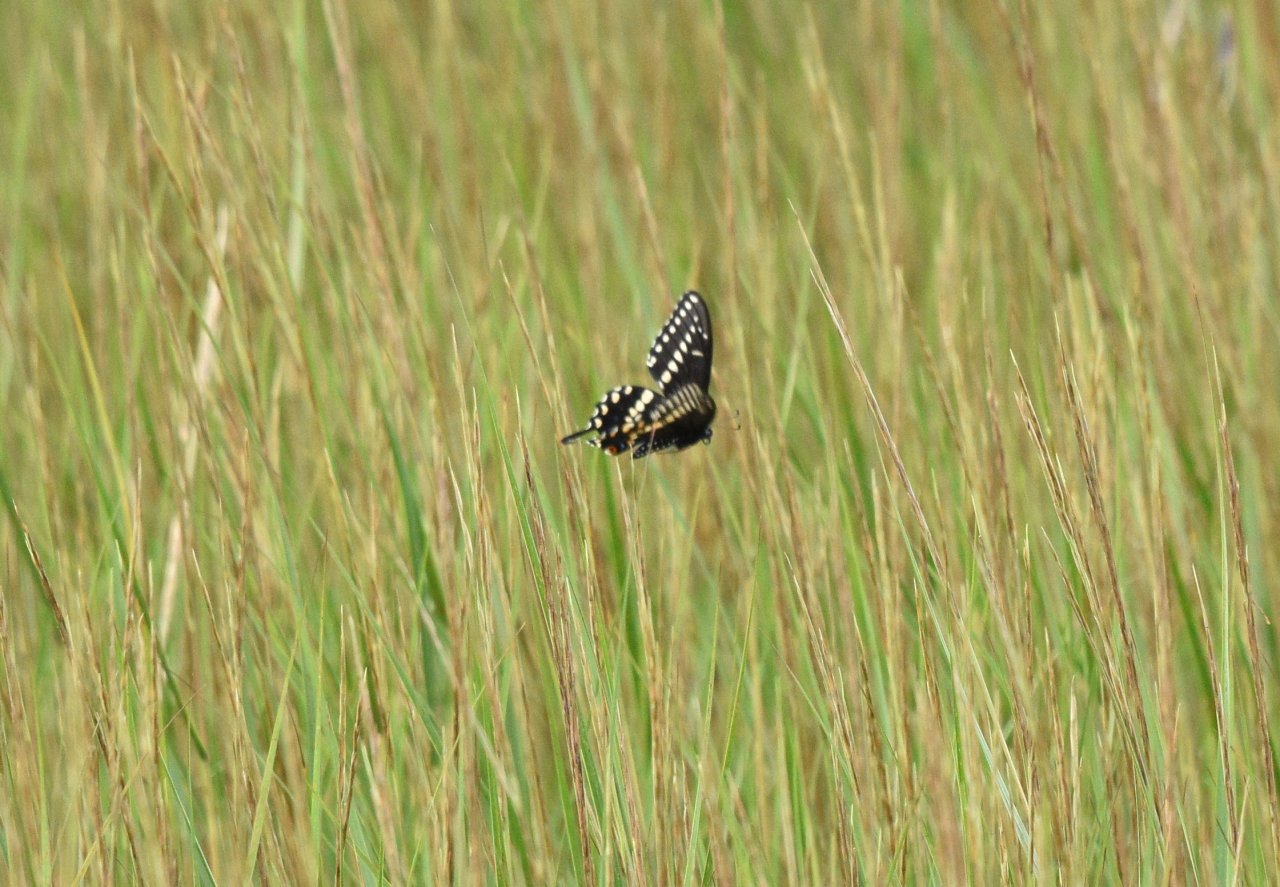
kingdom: Animalia
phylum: Arthropoda
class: Insecta
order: Lepidoptera
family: Papilionidae
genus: Papilio
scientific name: Papilio polyxenes
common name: Black Swallowtail
